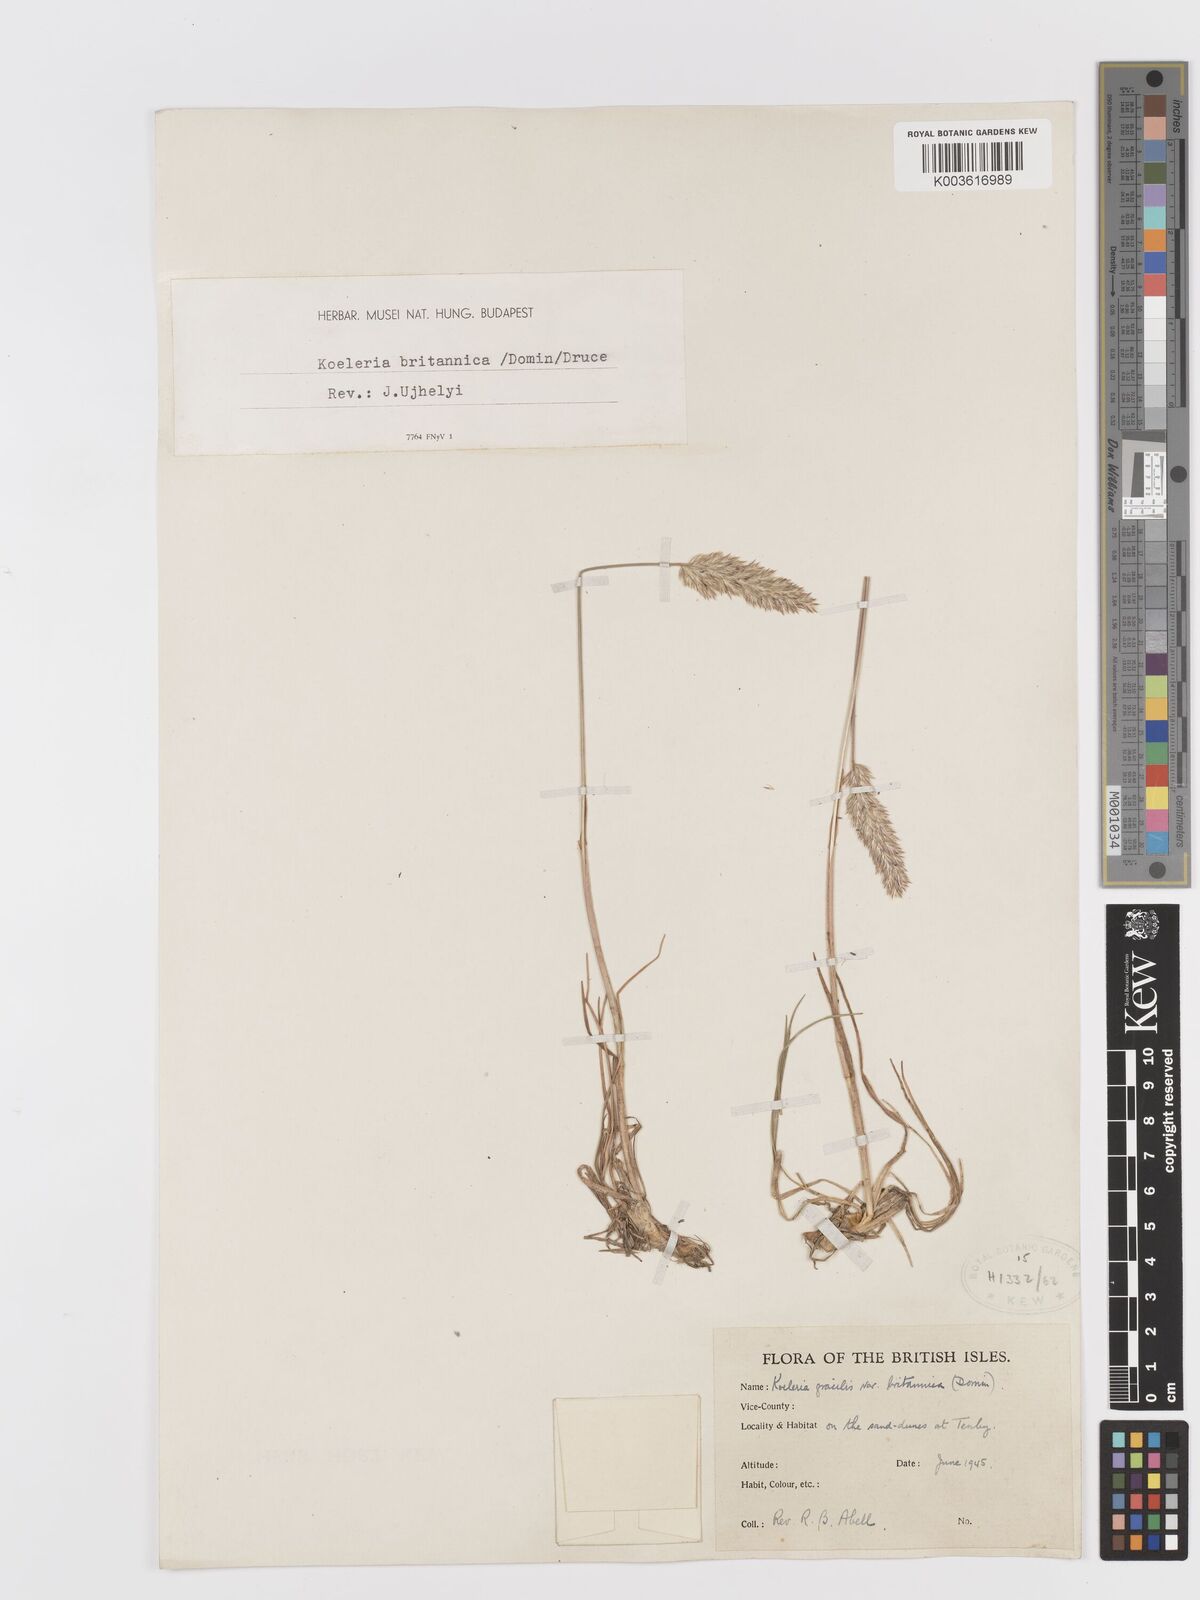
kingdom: Plantae
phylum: Tracheophyta
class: Liliopsida
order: Poales
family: Poaceae
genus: Koeleria
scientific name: Koeleria macrantha
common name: Crested hair-grass
